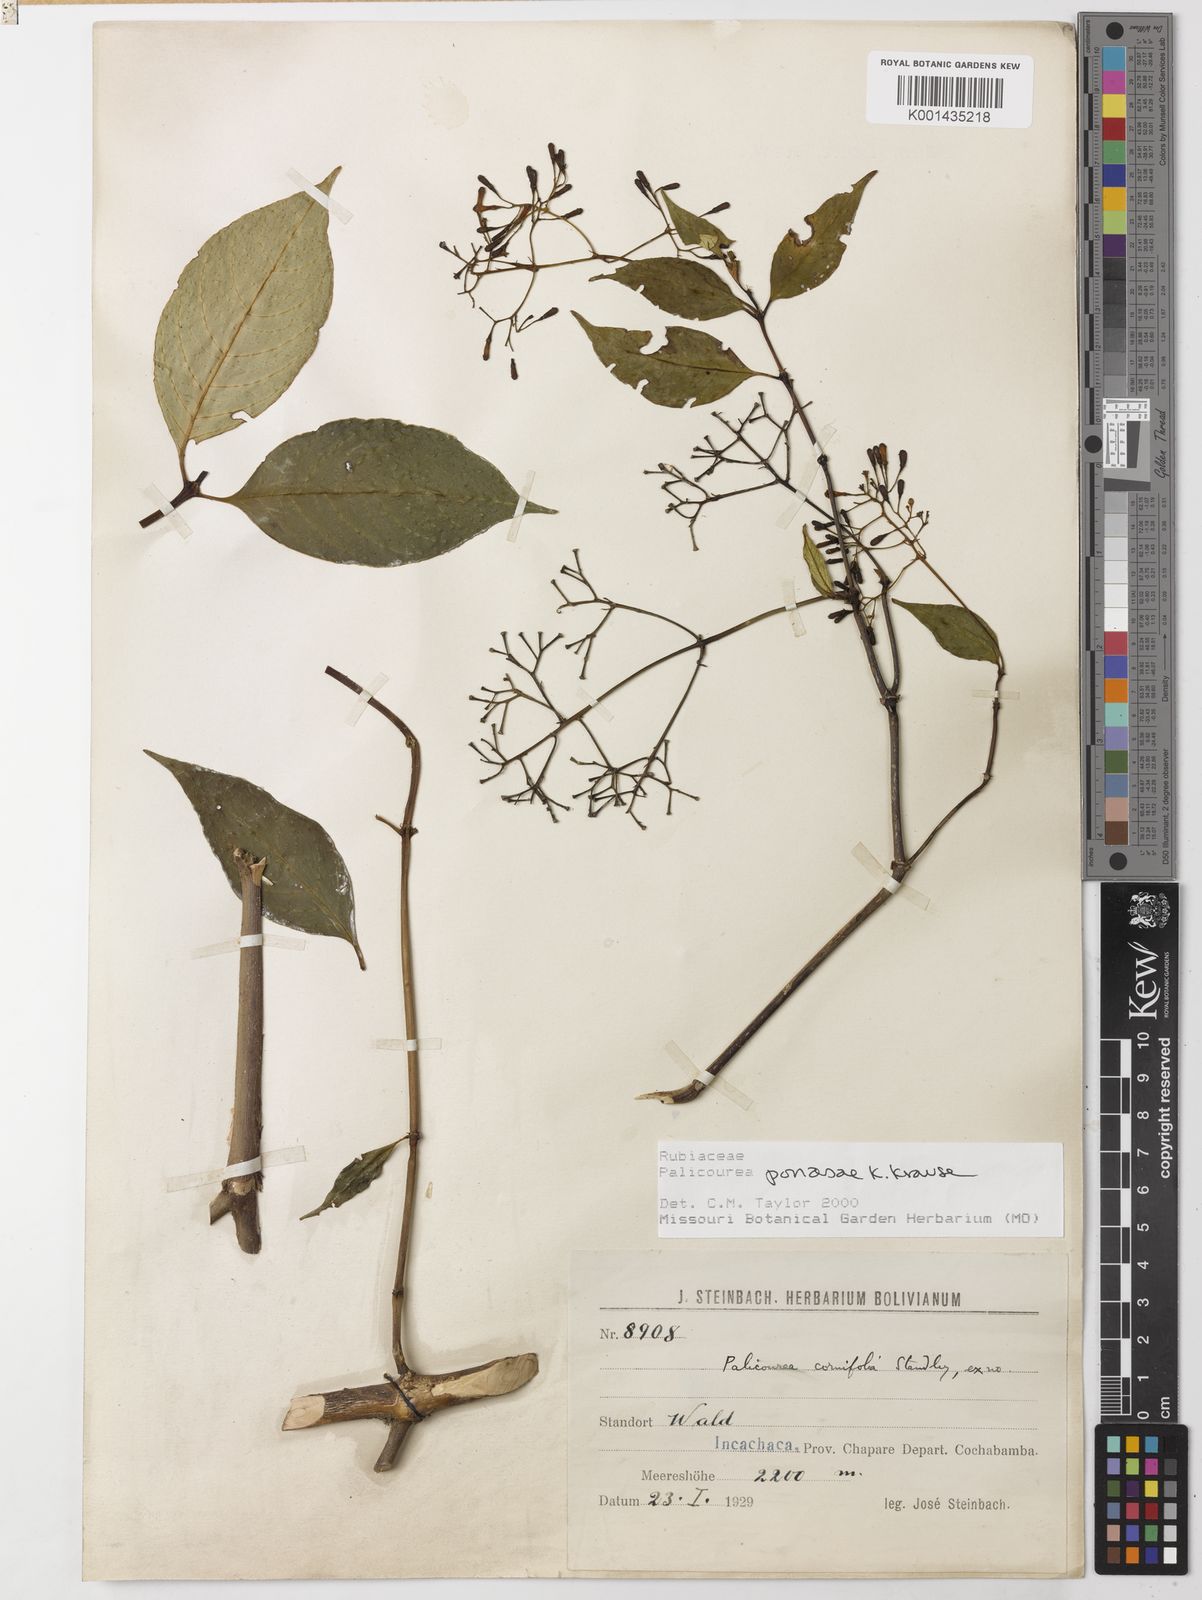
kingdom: Plantae
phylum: Tracheophyta
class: Magnoliopsida
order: Gentianales
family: Rubiaceae
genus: Palicourea
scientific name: Palicourea ponasae
